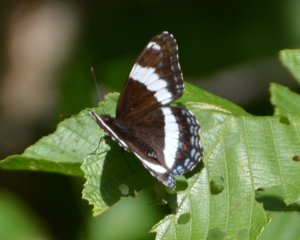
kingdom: Animalia
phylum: Arthropoda
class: Insecta
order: Lepidoptera
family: Nymphalidae
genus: Limenitis
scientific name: Limenitis arthemis
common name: Red-spotted Admiral
